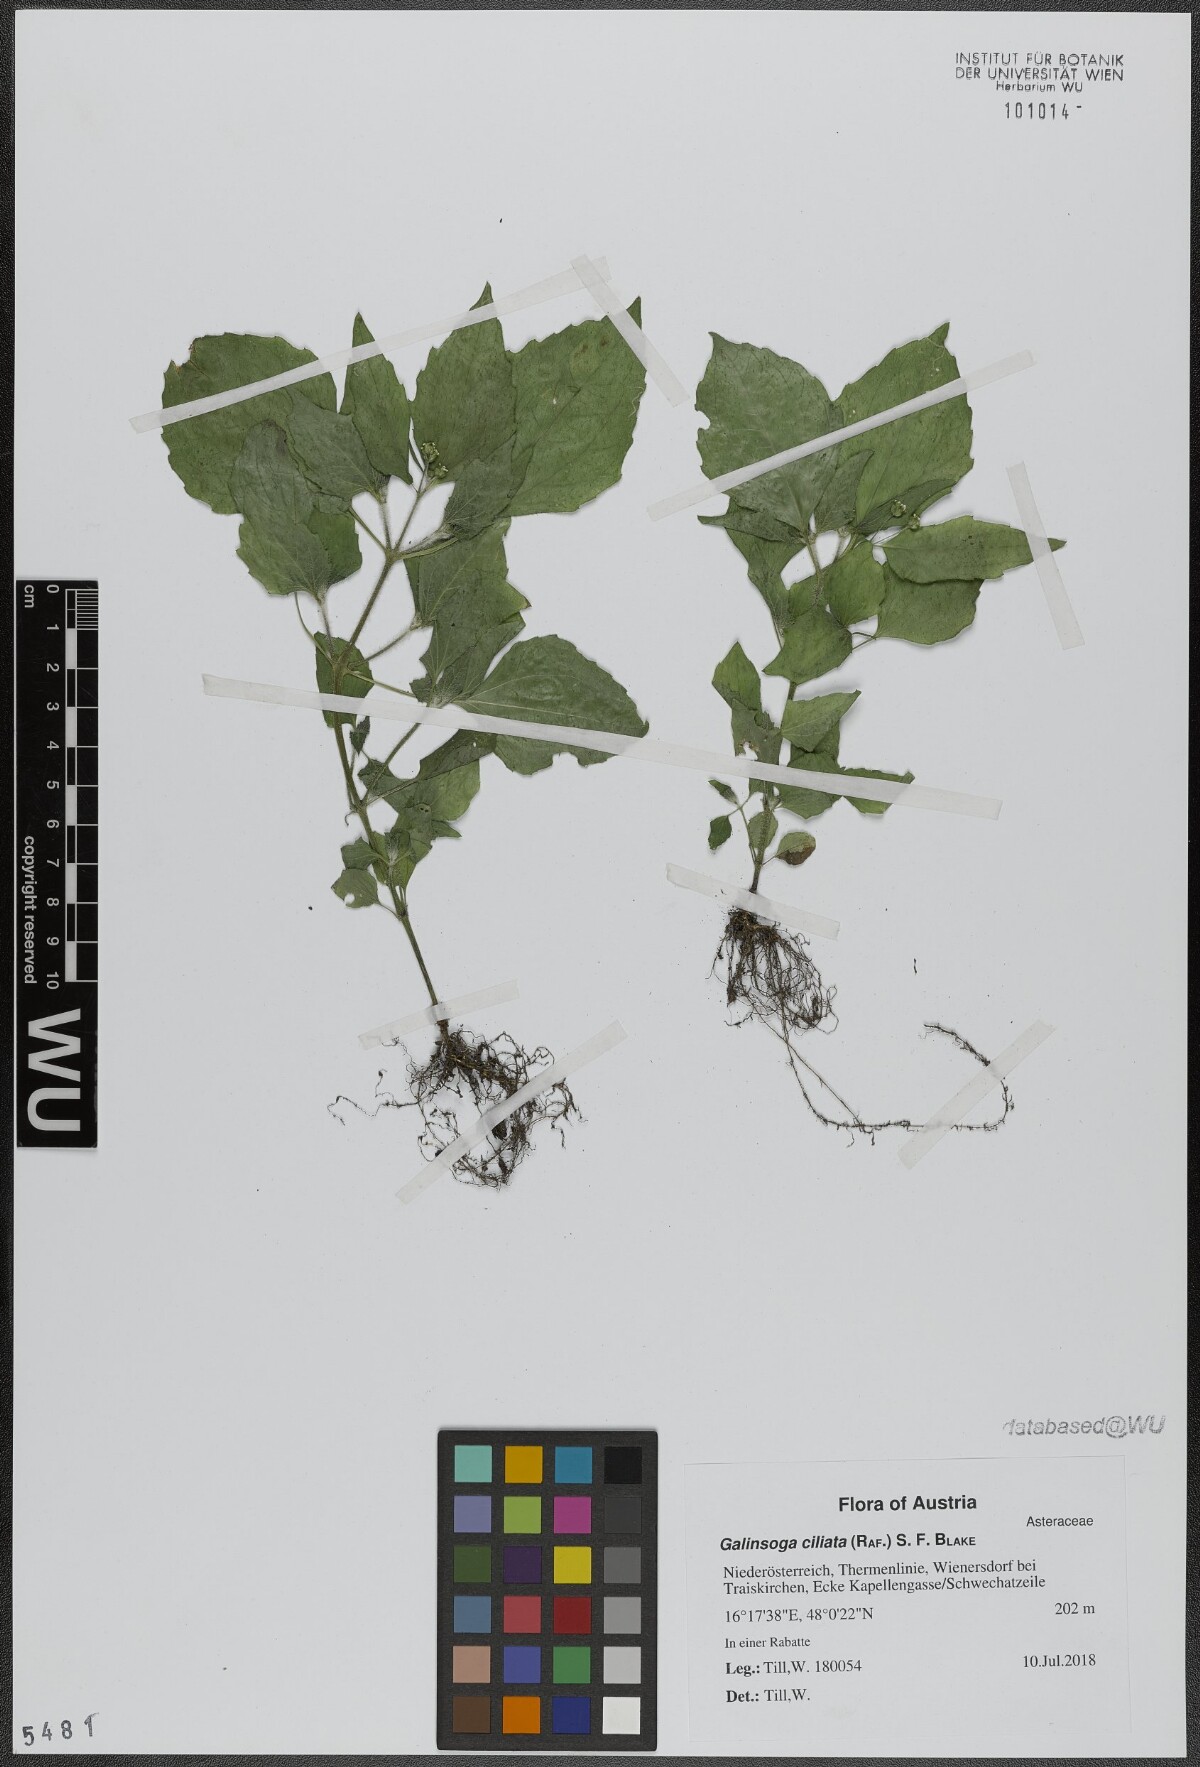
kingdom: Plantae
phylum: Tracheophyta
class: Magnoliopsida
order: Asterales
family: Asteraceae
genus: Galinsoga
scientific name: Galinsoga quadriradiata
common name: Shaggy soldier
